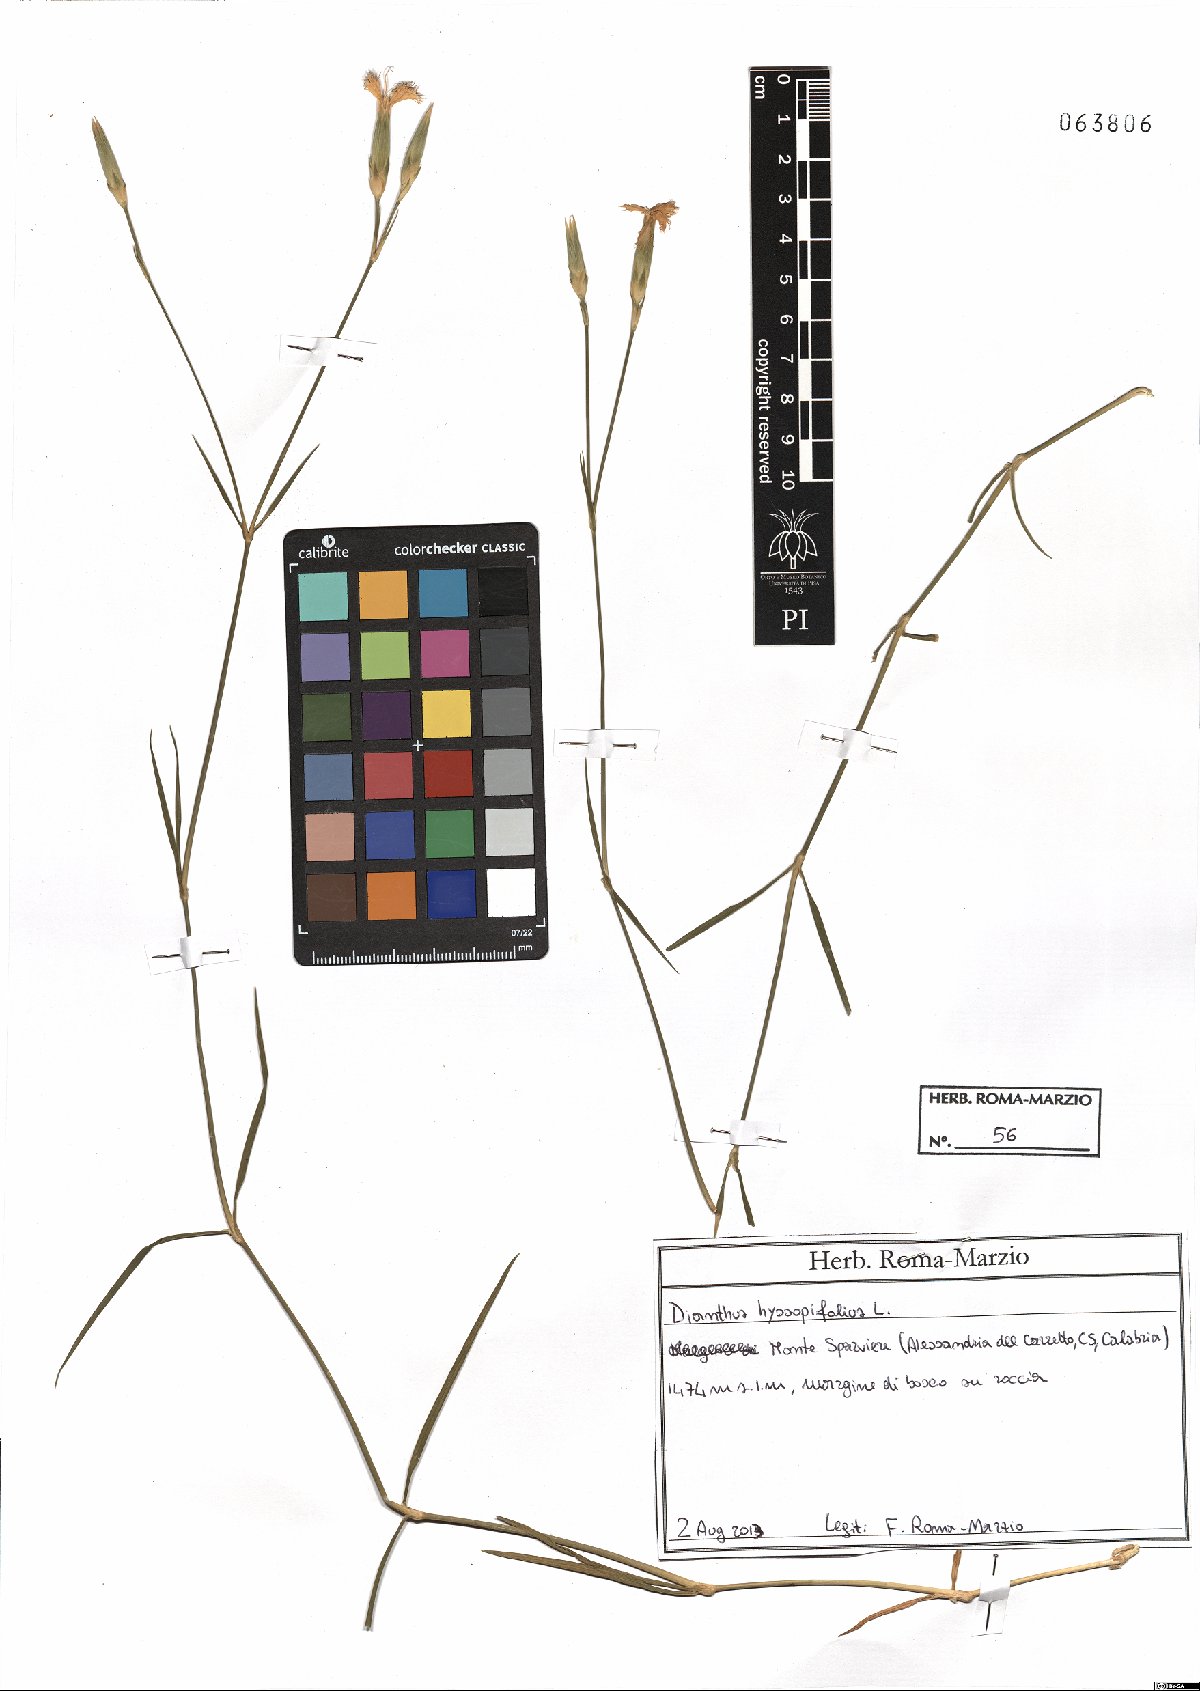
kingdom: Plantae
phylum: Tracheophyta
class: Magnoliopsida
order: Caryophyllales
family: Caryophyllaceae
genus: Dianthus
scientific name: Dianthus hyssopifolius
